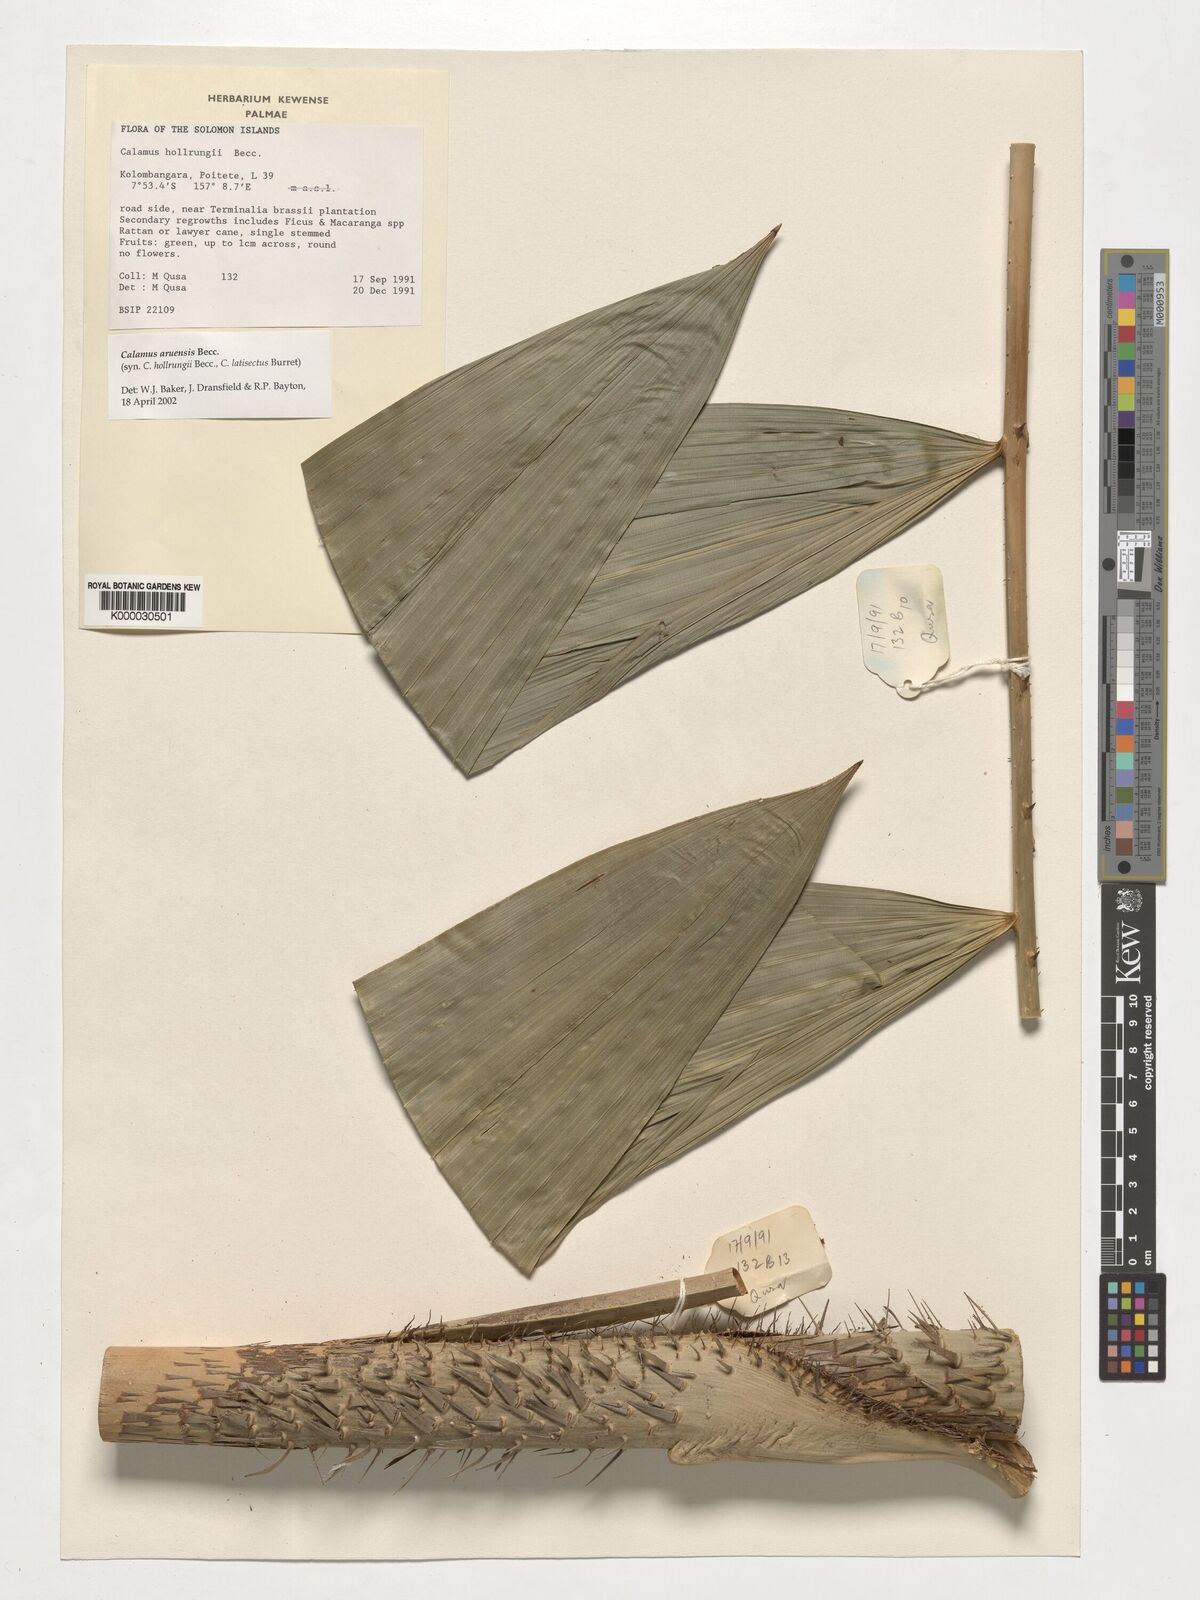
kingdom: Plantae
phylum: Tracheophyta
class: Liliopsida
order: Arecales
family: Arecaceae
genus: Calamus
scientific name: Calamus aruensis
